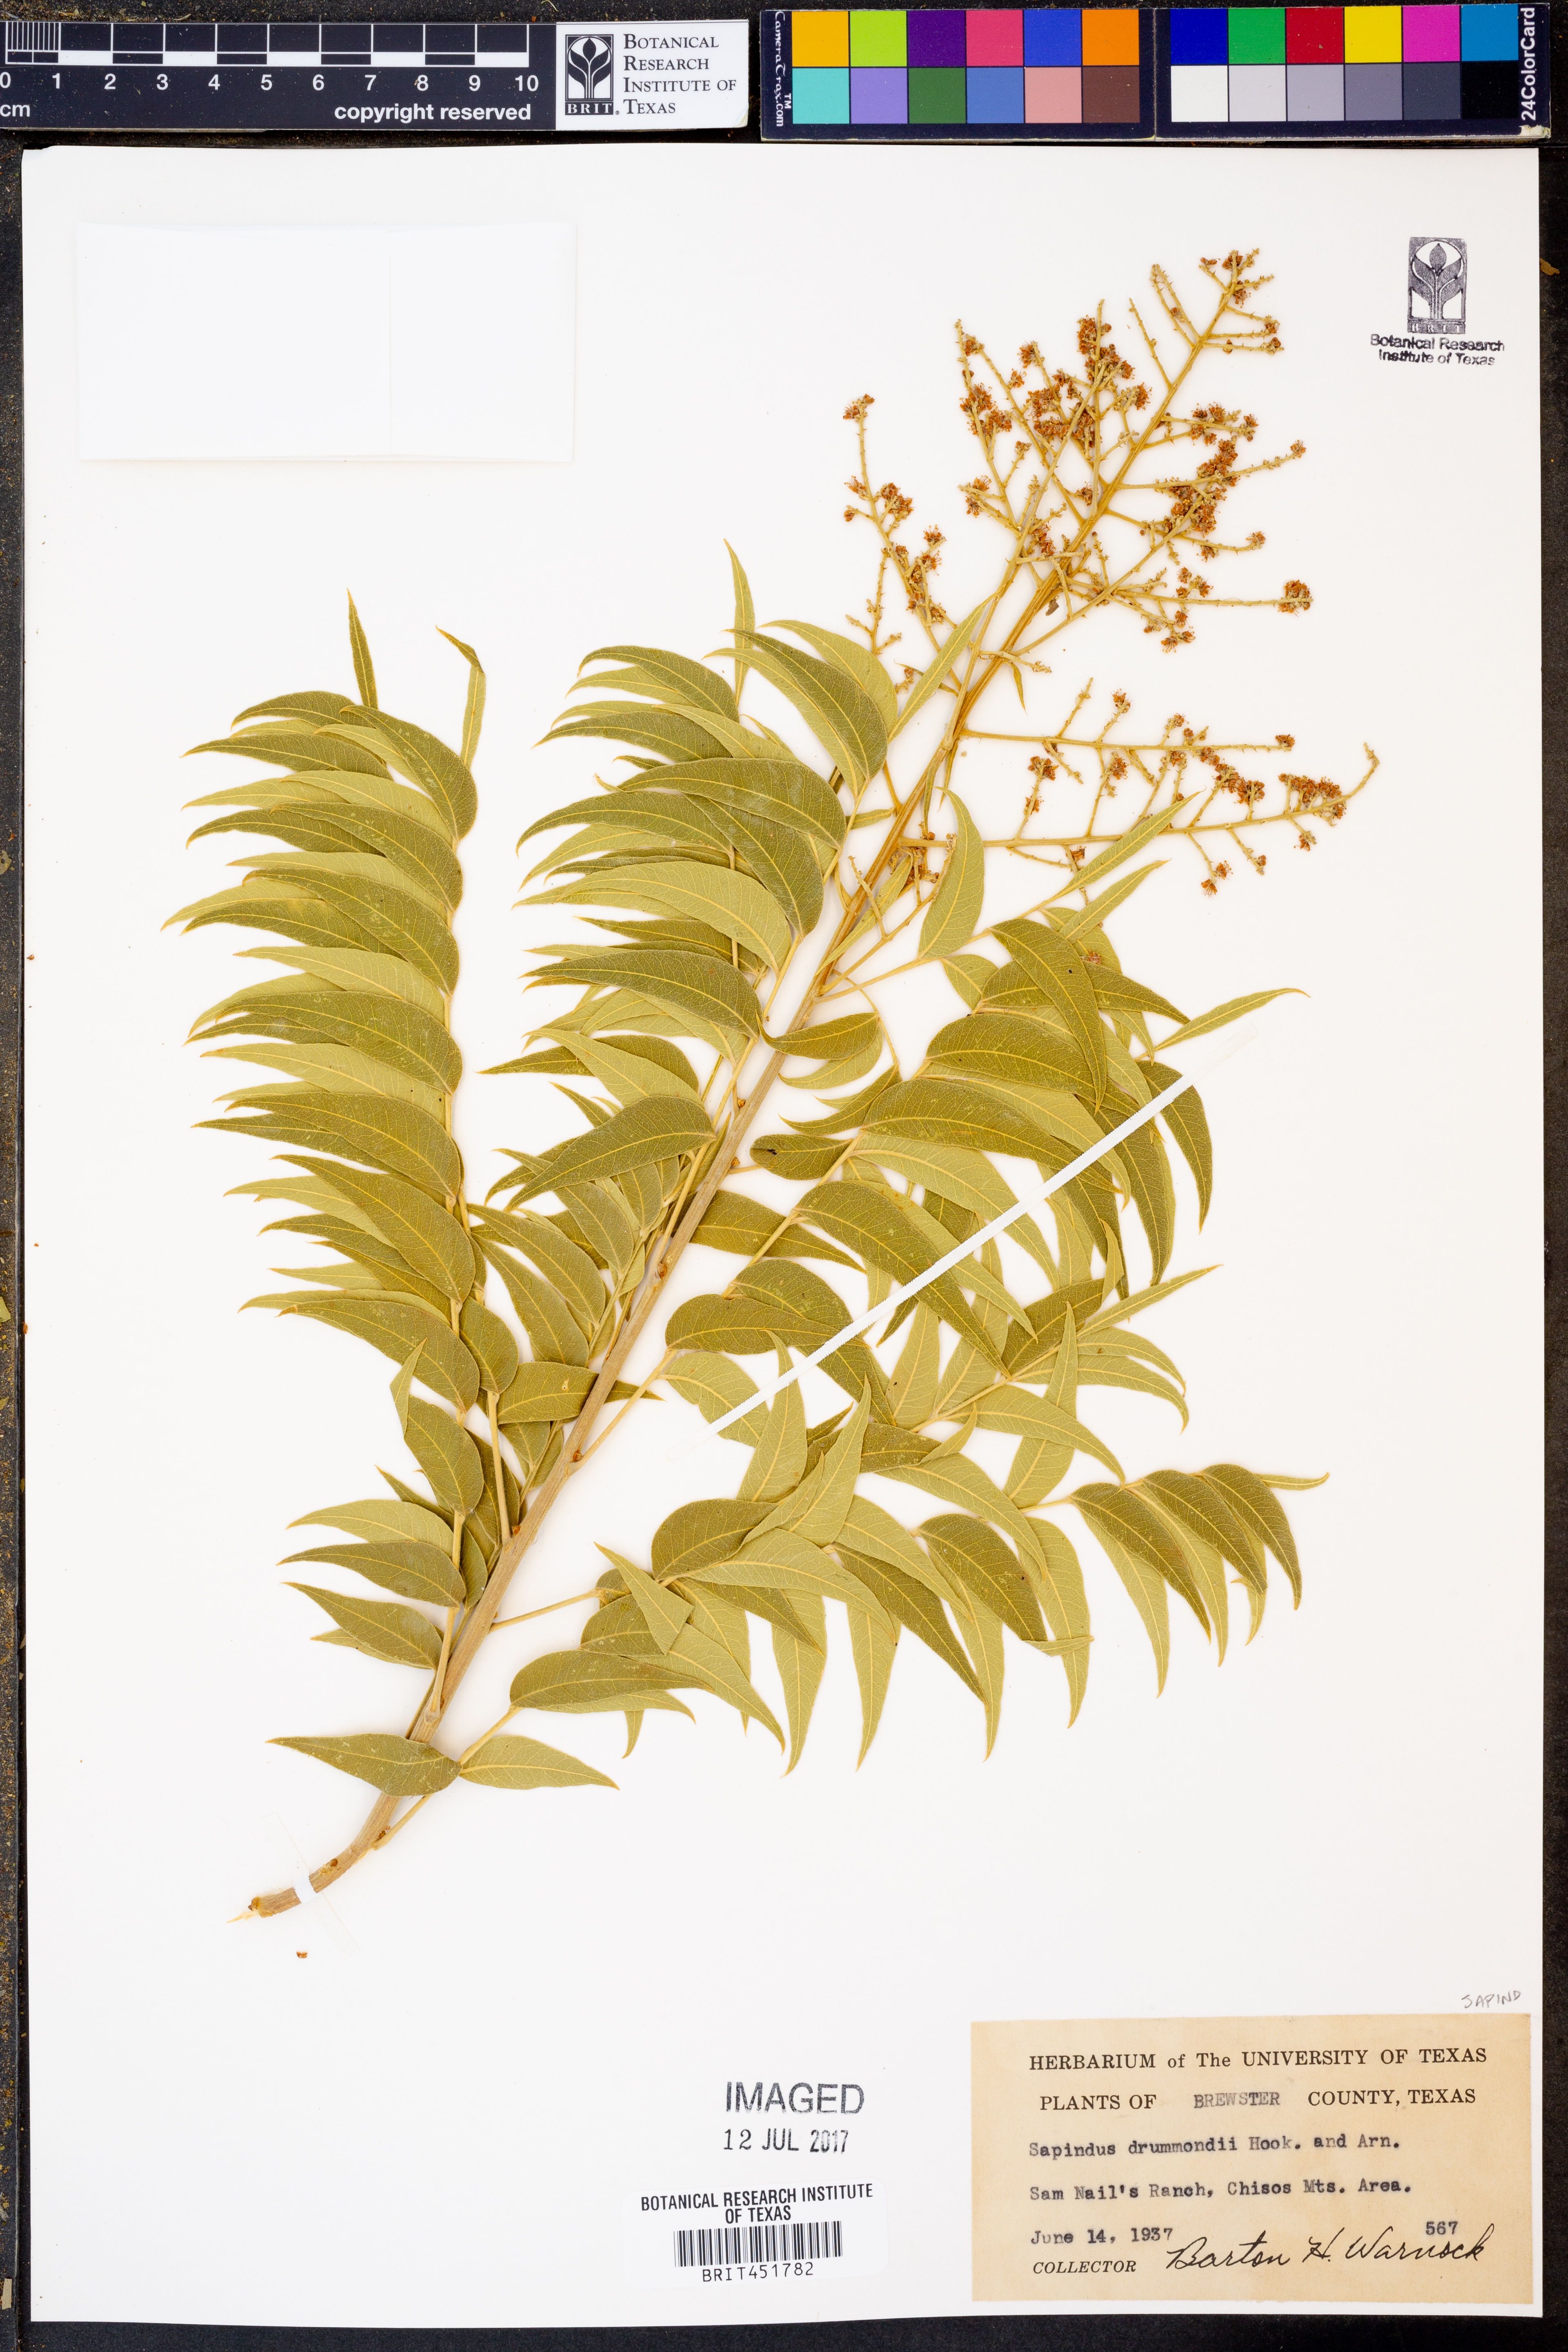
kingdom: Plantae
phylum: Tracheophyta
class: Magnoliopsida
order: Sapindales
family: Sapindaceae
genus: Sapindus
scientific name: Sapindus drummondii
